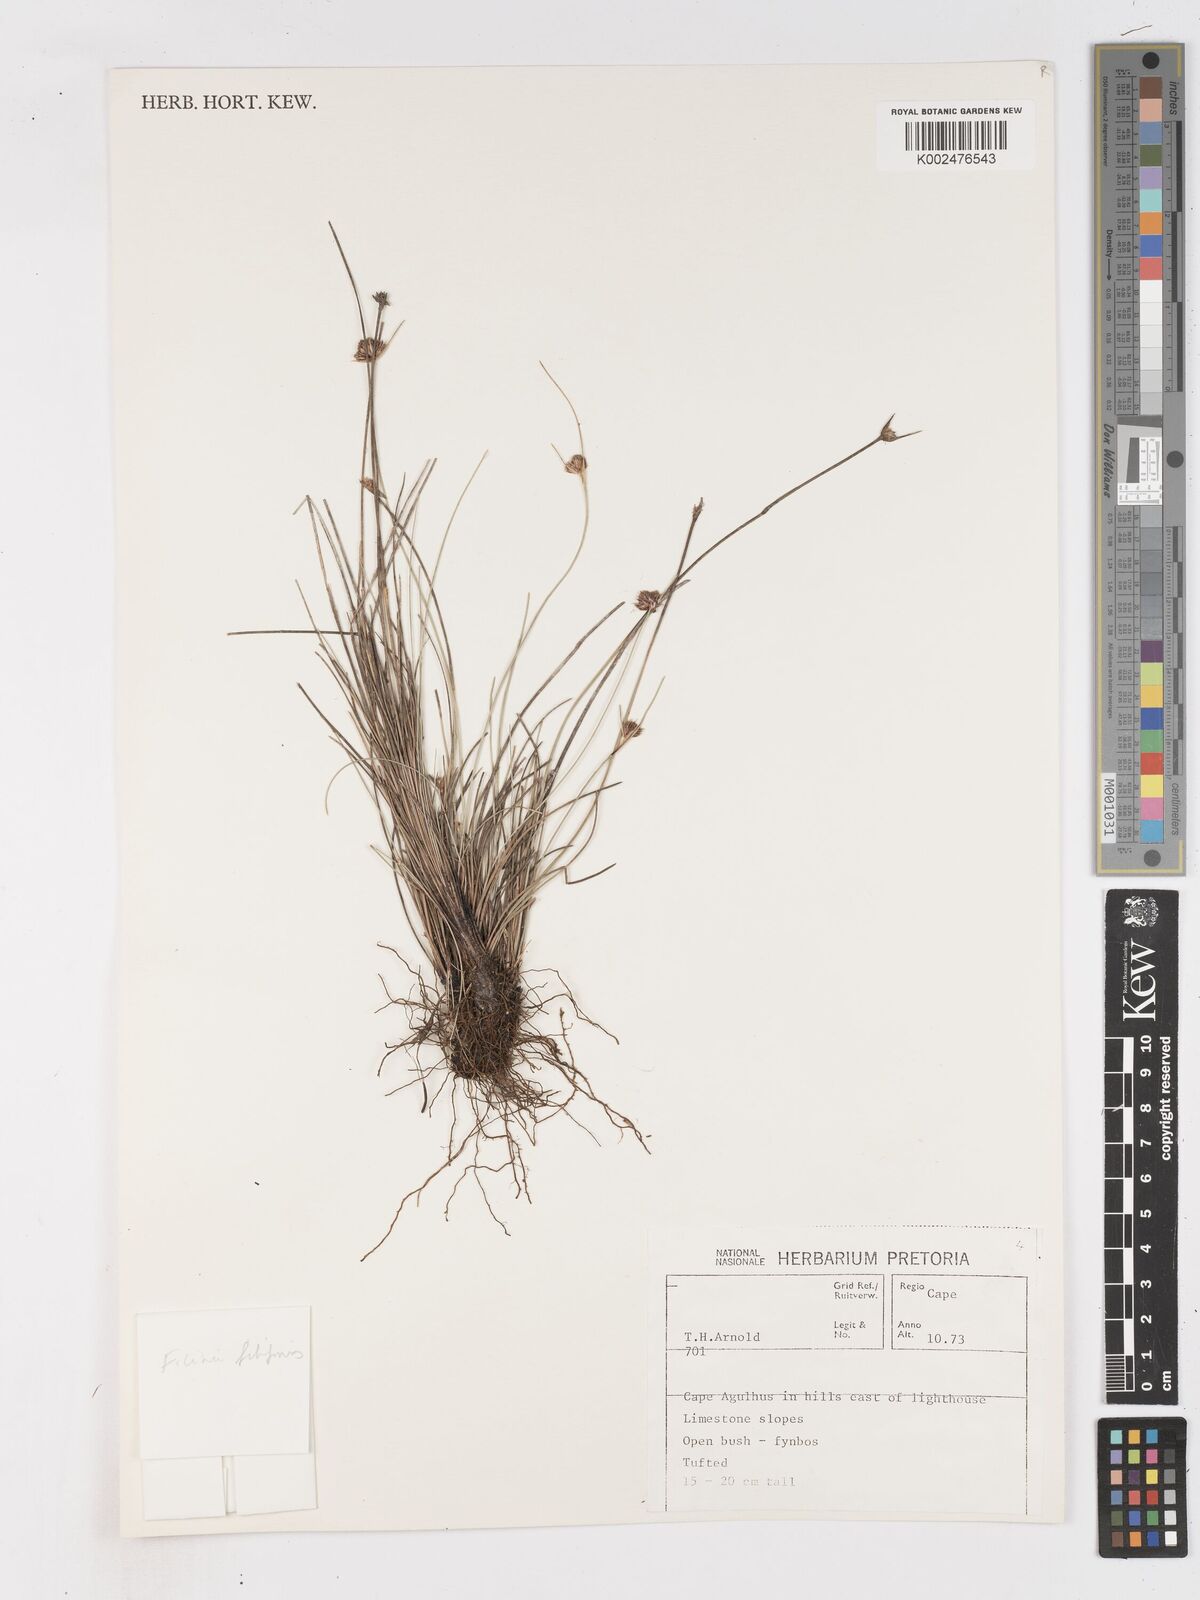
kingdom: Plantae
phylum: Tracheophyta
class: Liliopsida
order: Poales
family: Cyperaceae
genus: Ficinia
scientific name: Ficinia
